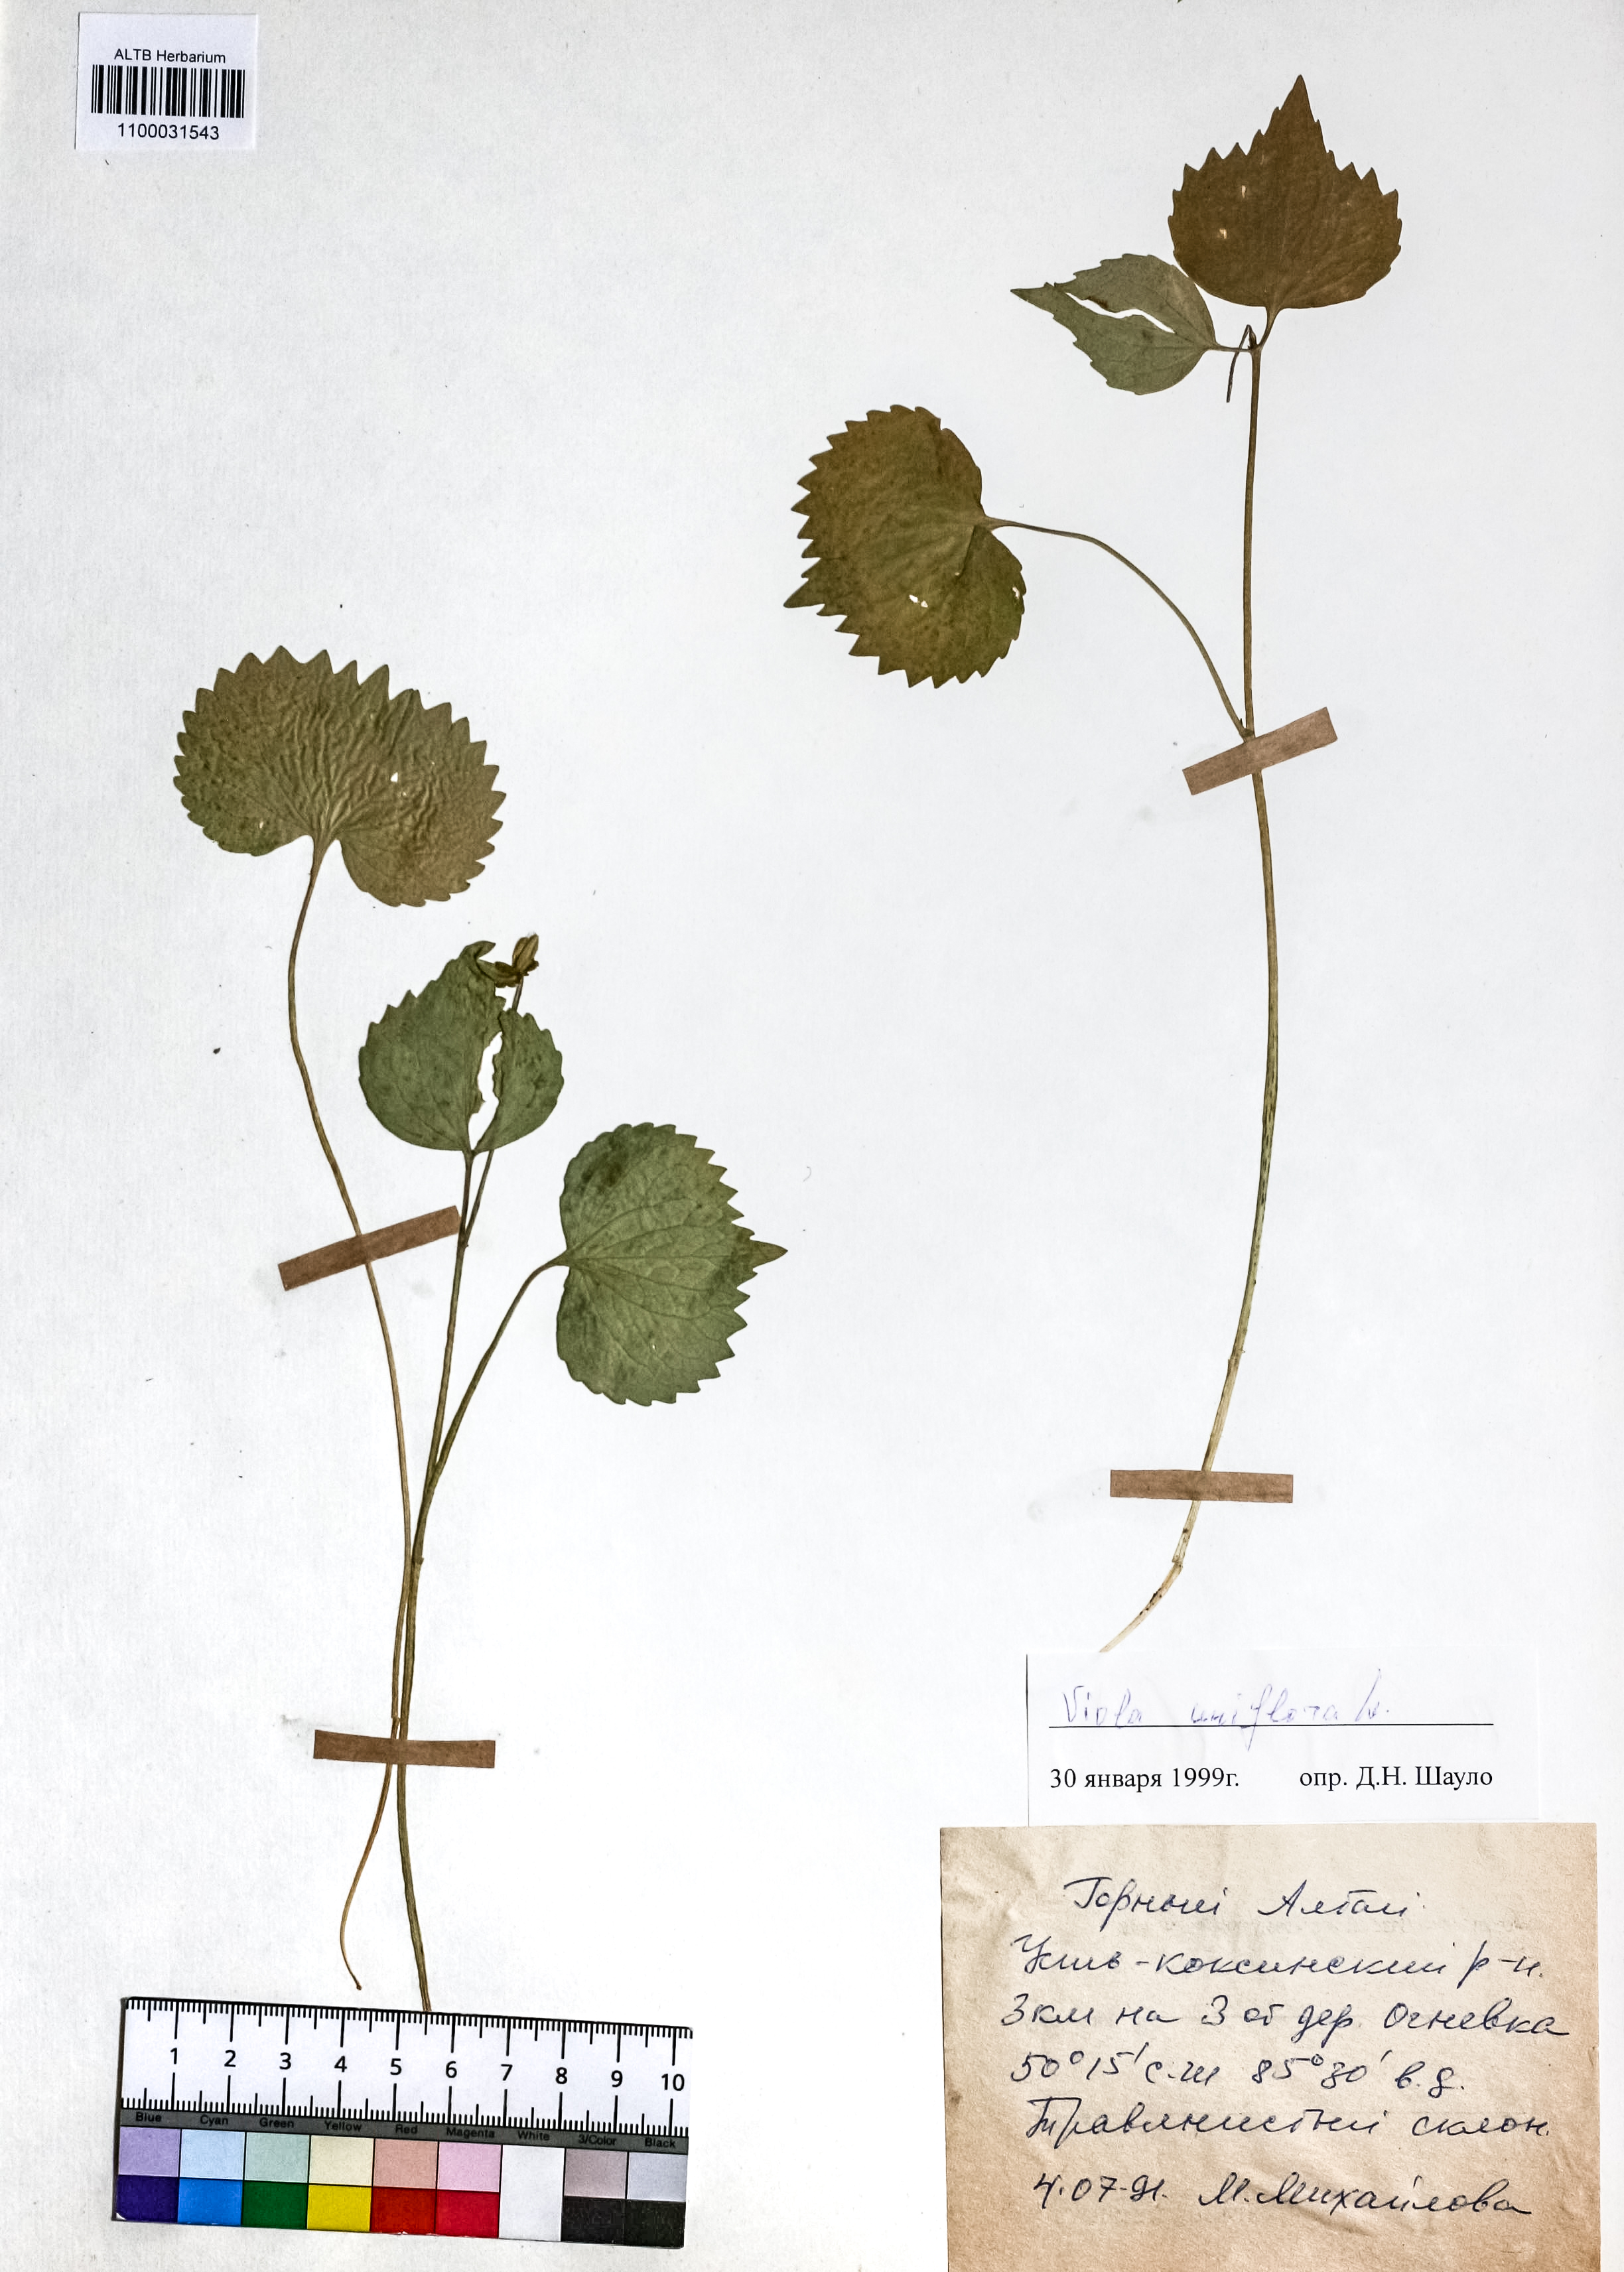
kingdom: Plantae
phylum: Tracheophyta
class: Magnoliopsida
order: Malpighiales
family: Violaceae
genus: Viola
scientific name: Viola uniflora
